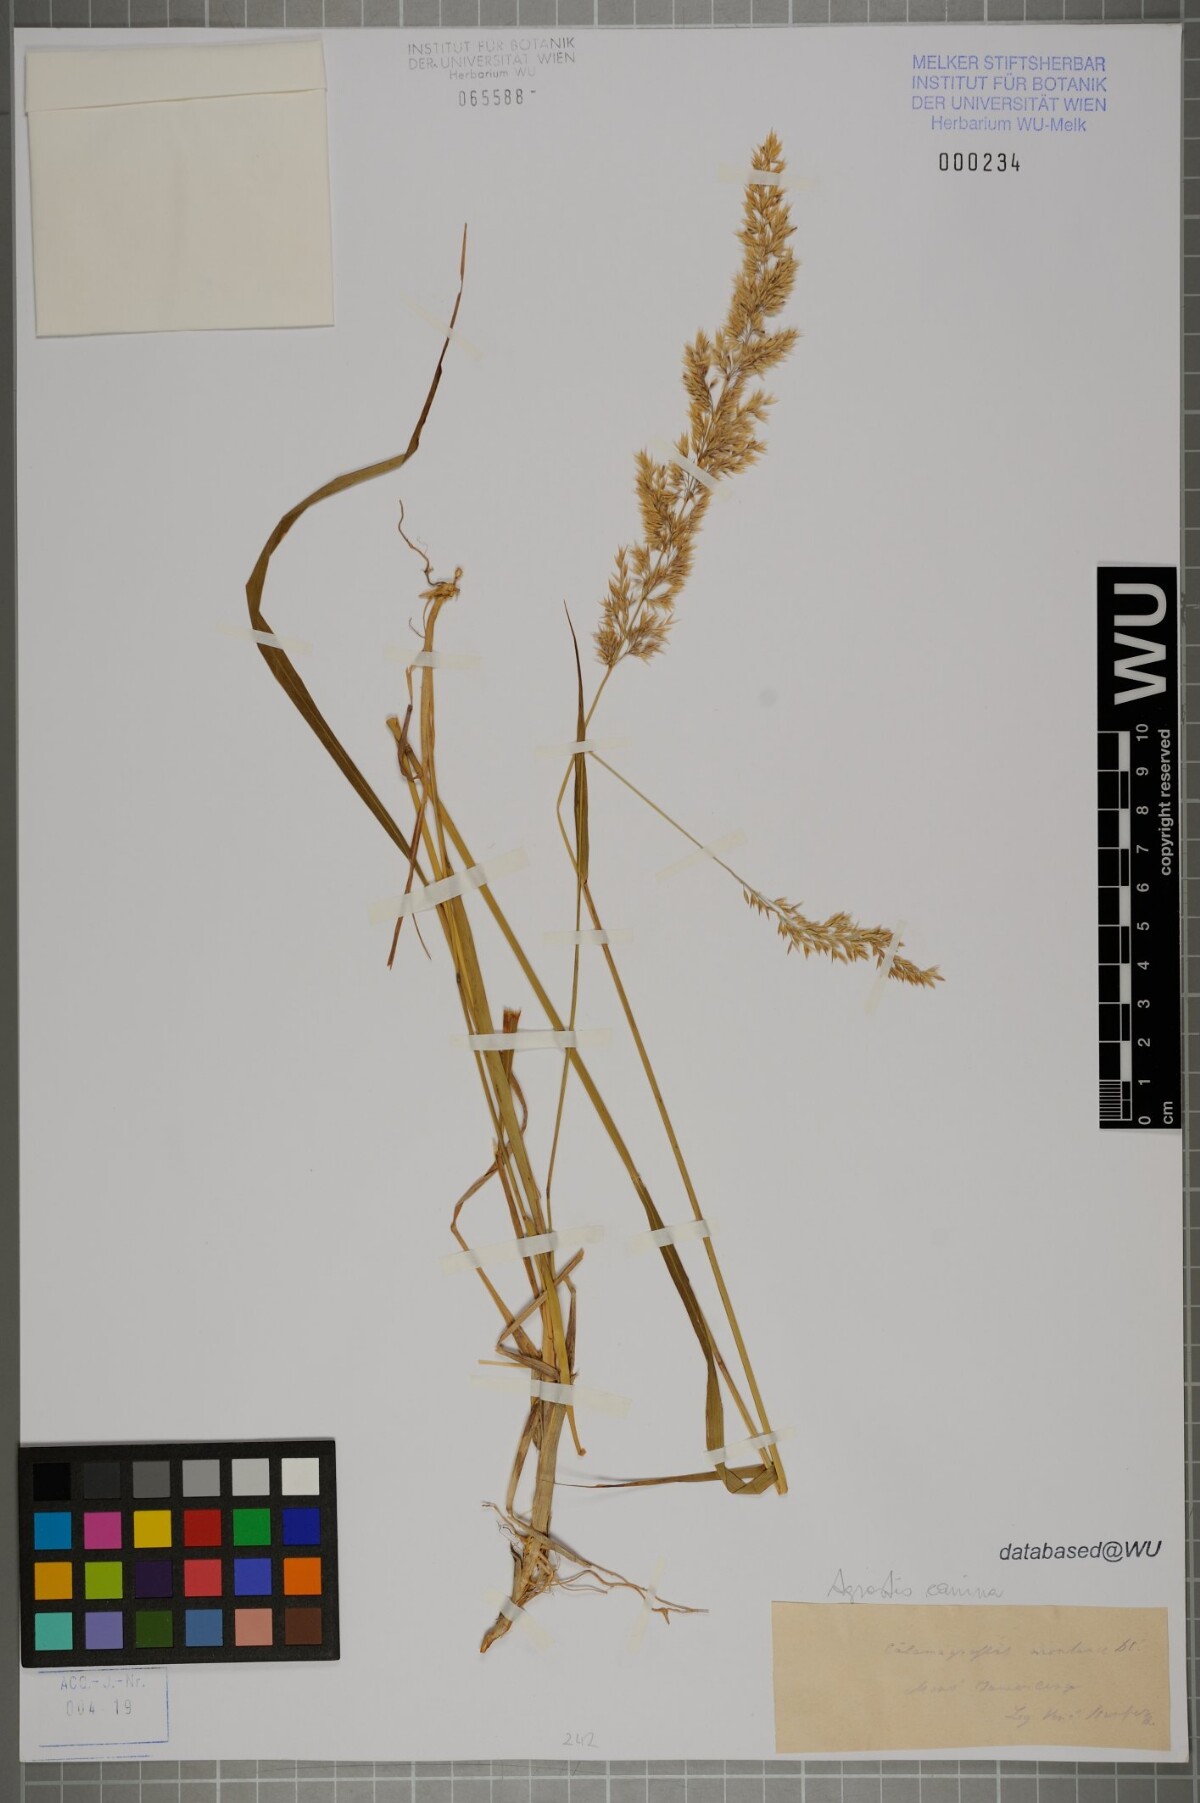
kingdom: Plantae
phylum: Tracheophyta
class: Liliopsida
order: Poales
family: Poaceae
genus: Agrostis
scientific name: Agrostis canina
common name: Velvet bent
